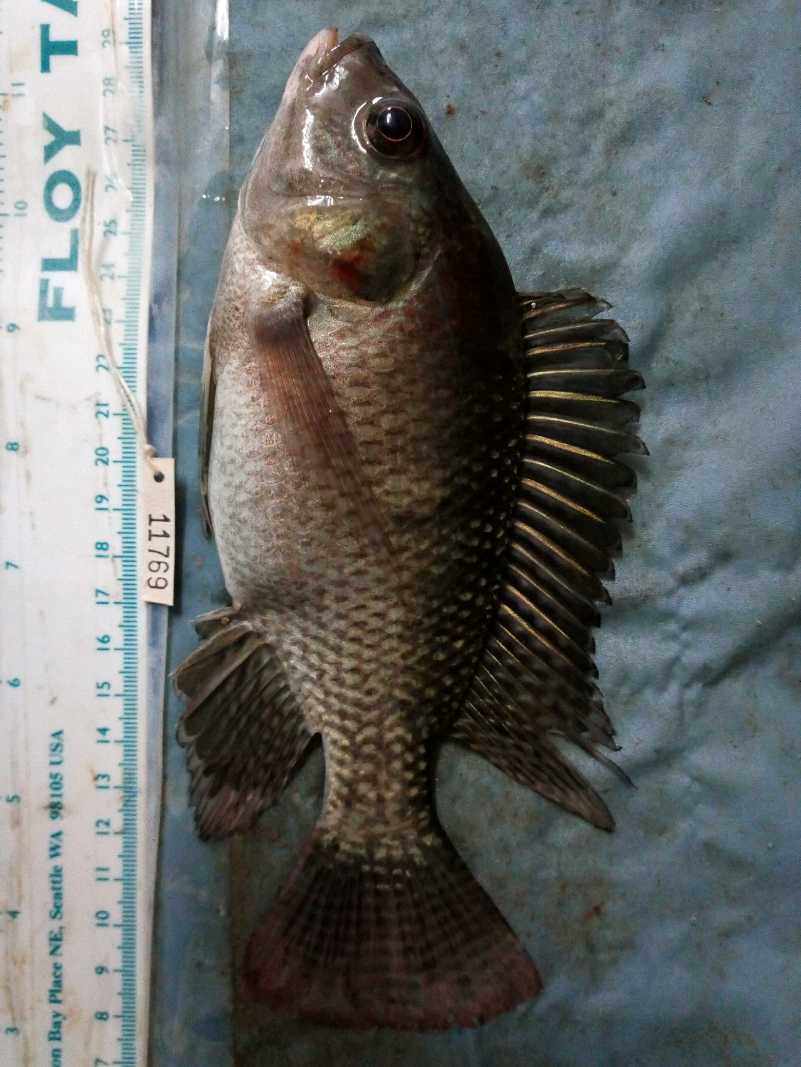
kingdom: Animalia
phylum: Chordata
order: Perciformes
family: Cichlidae
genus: Oreochromis
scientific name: Oreochromis niloticus
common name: Nile tilapia
